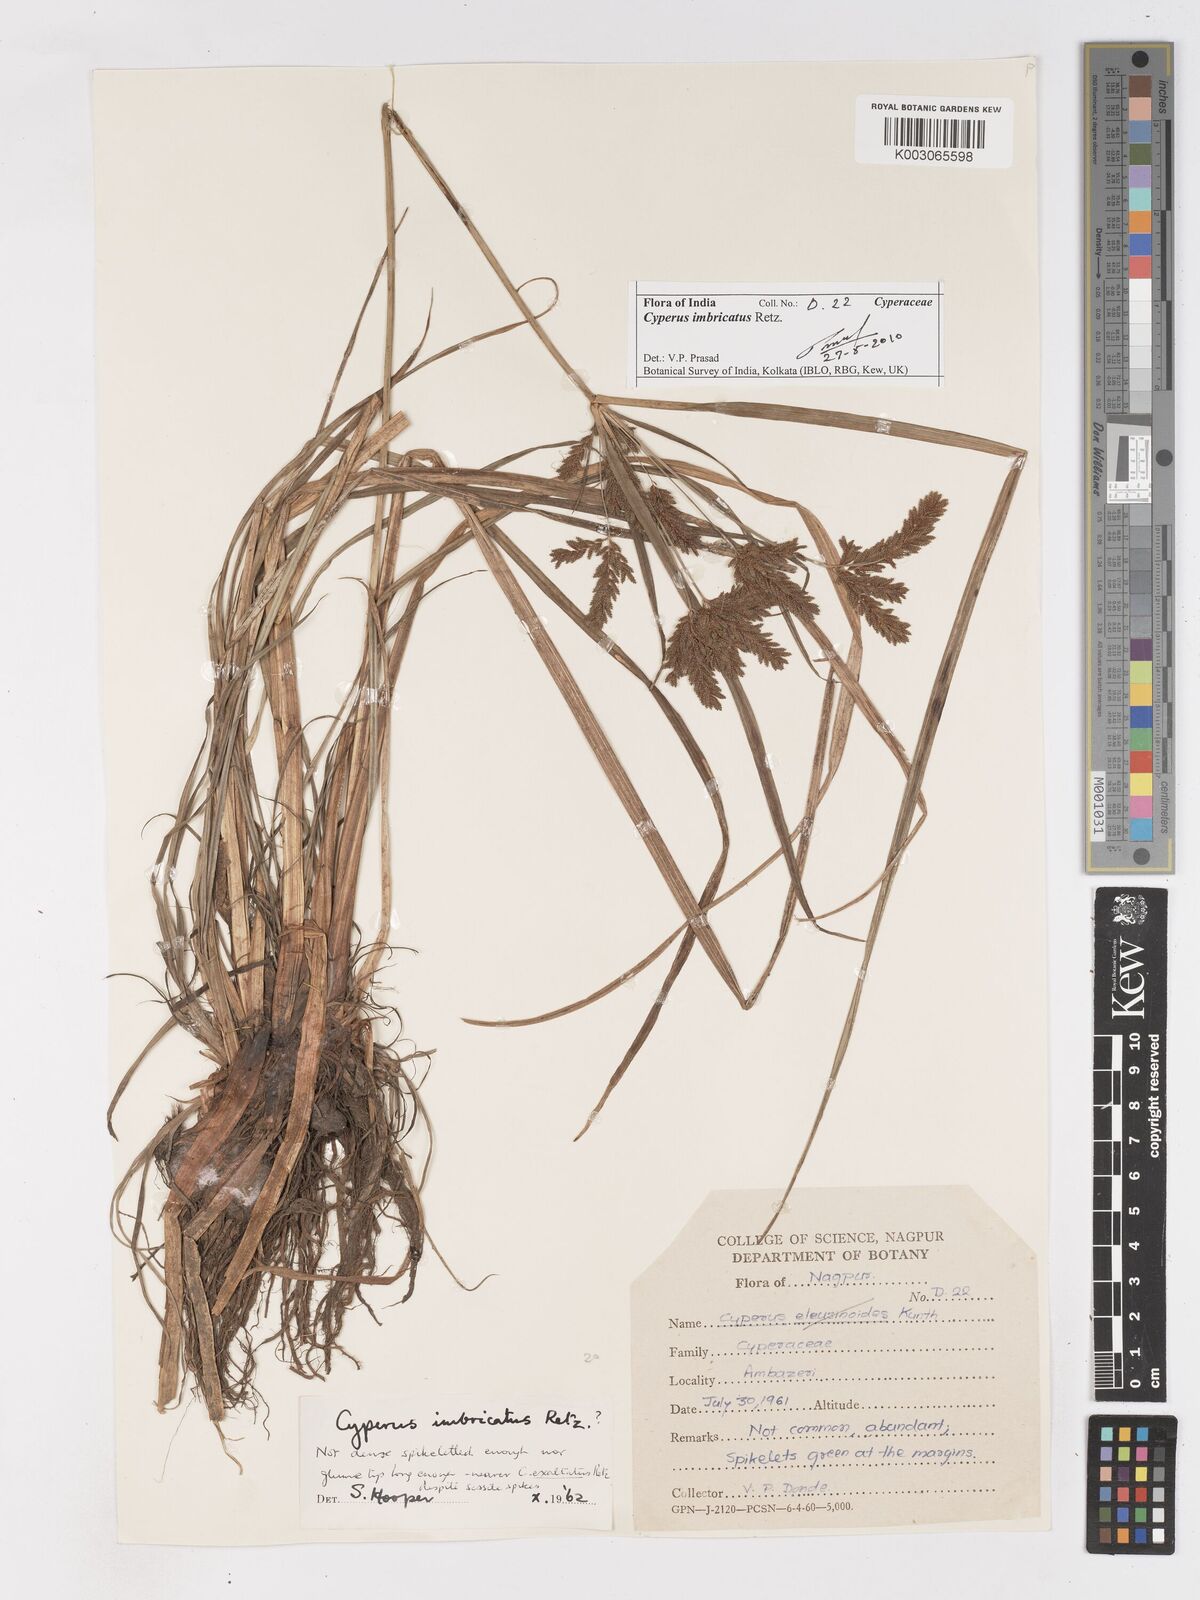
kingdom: Plantae
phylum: Tracheophyta
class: Liliopsida
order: Poales
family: Cyperaceae
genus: Cyperus
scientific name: Cyperus exaltatus
